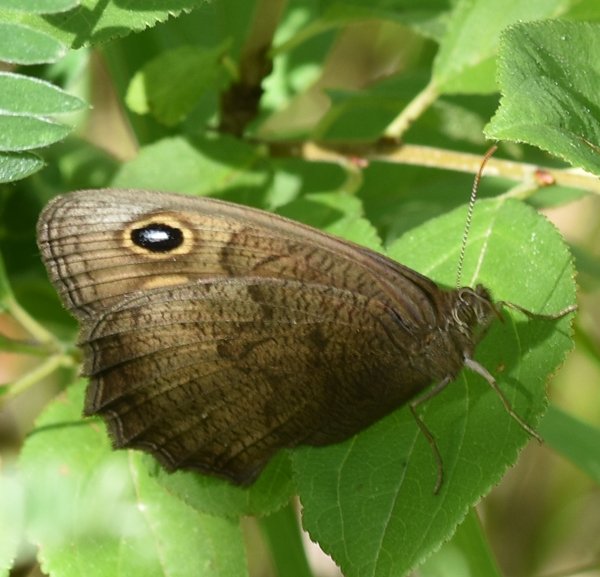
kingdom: Animalia
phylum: Arthropoda
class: Insecta
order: Lepidoptera
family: Nymphalidae
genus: Cercyonis
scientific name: Cercyonis pegala
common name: Common Wood-Nymph
